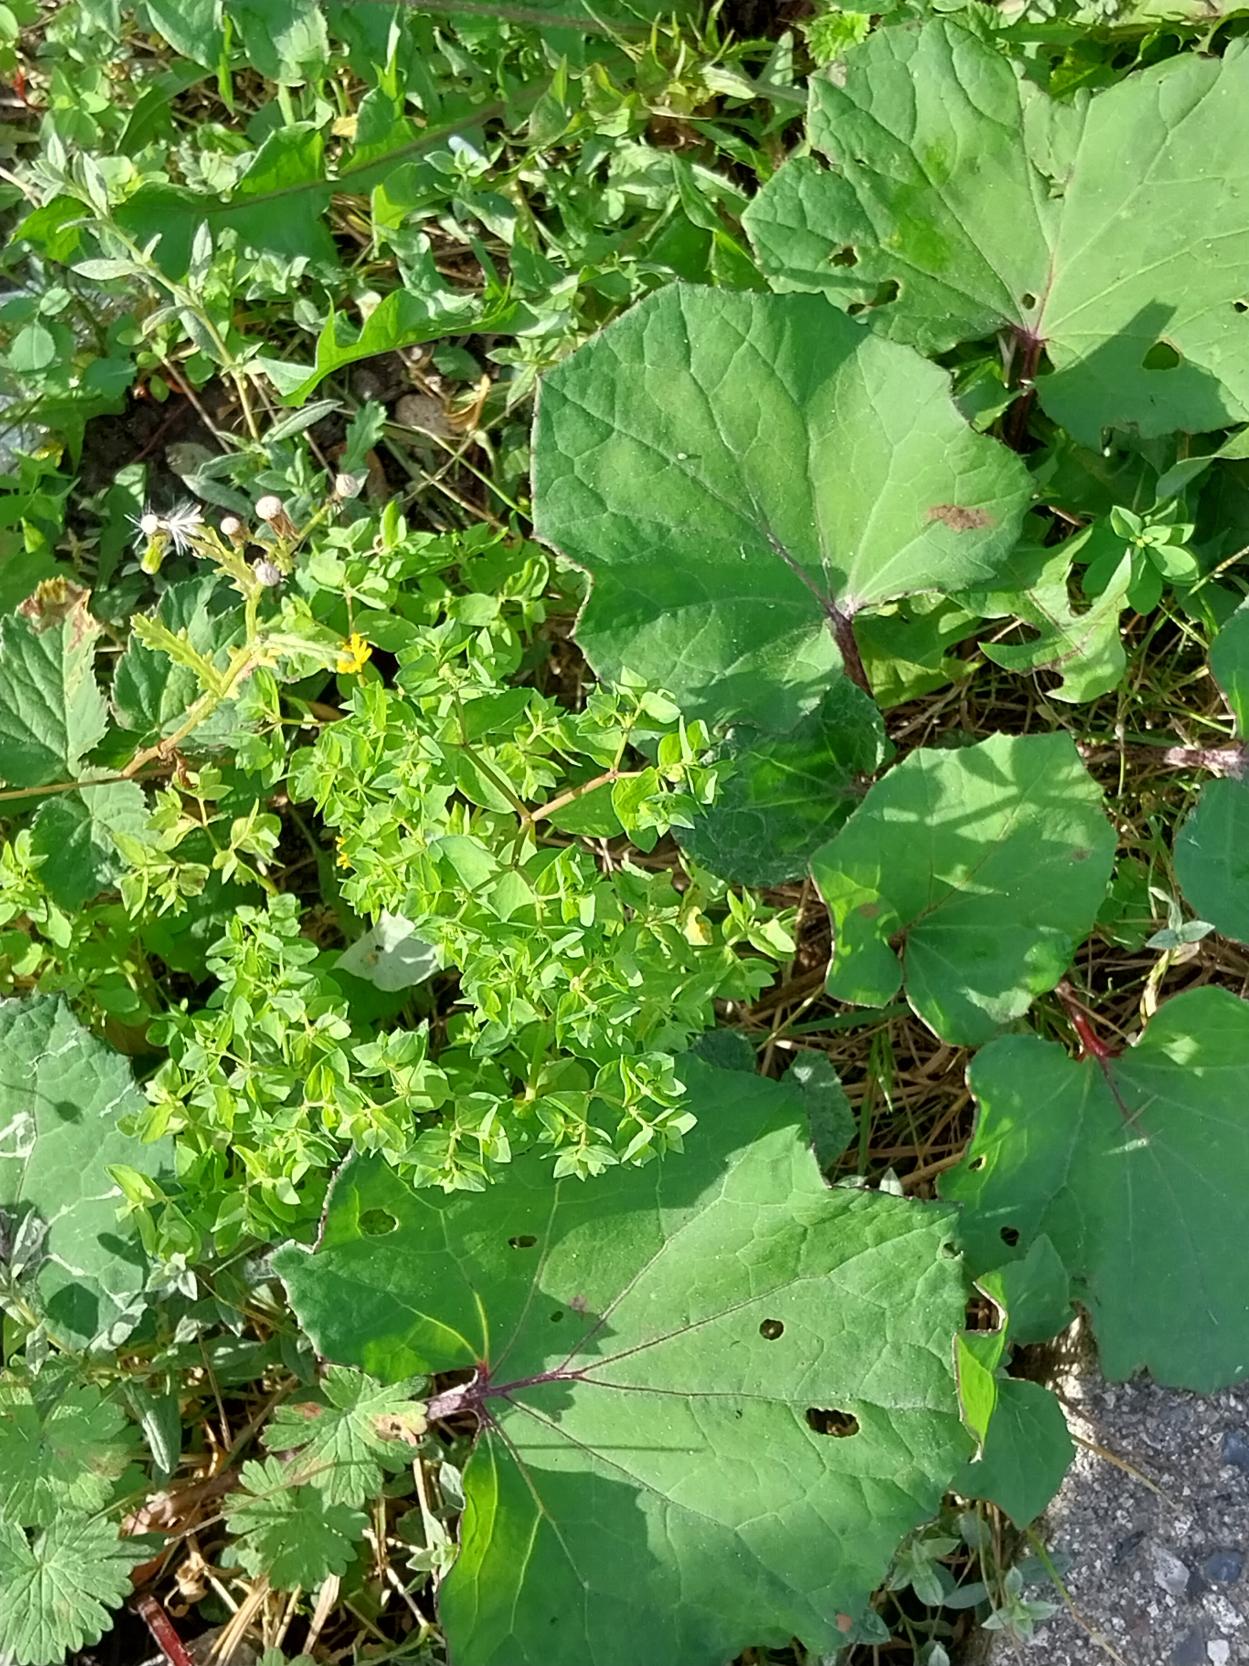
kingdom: Plantae
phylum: Tracheophyta
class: Magnoliopsida
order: Malpighiales
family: Euphorbiaceae
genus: Euphorbia
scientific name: Euphorbia peplus
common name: Gaffel-vortemælk
